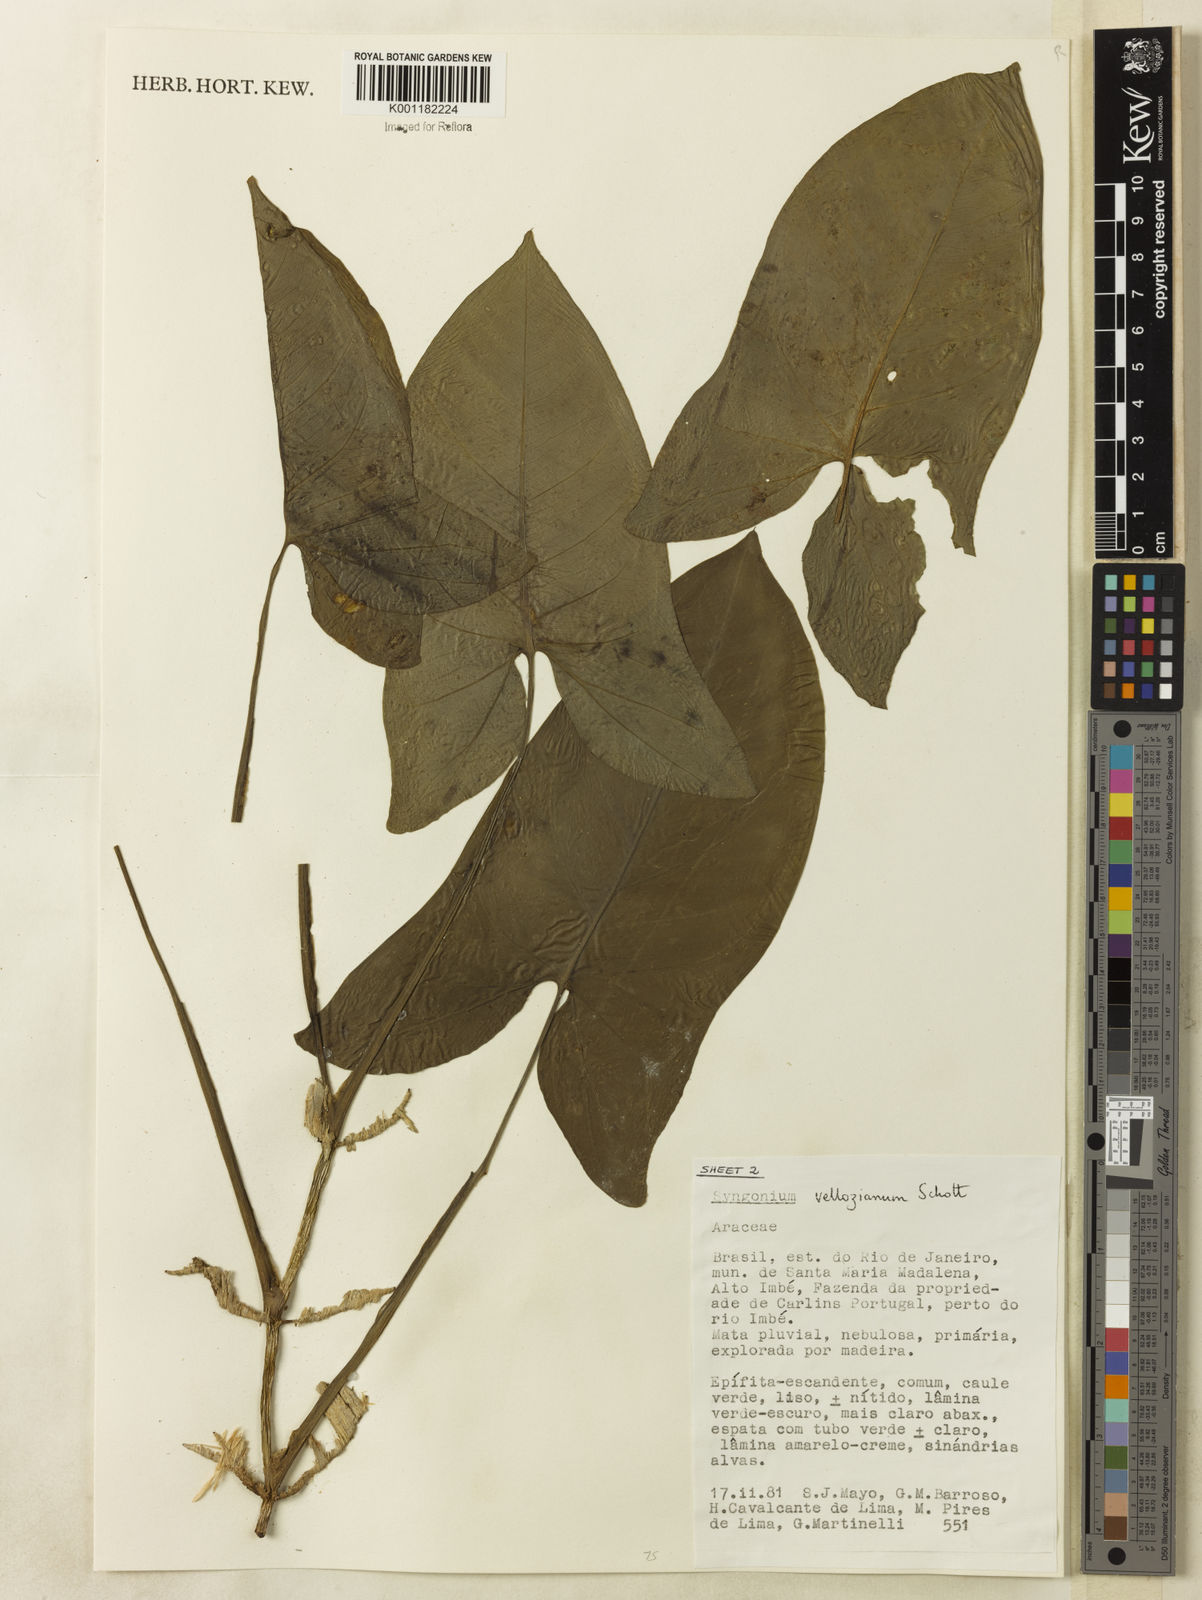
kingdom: Plantae
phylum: Tracheophyta
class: Liliopsida
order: Alismatales
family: Araceae
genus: Thaumatophyllum
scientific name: Thaumatophyllum williamsii
